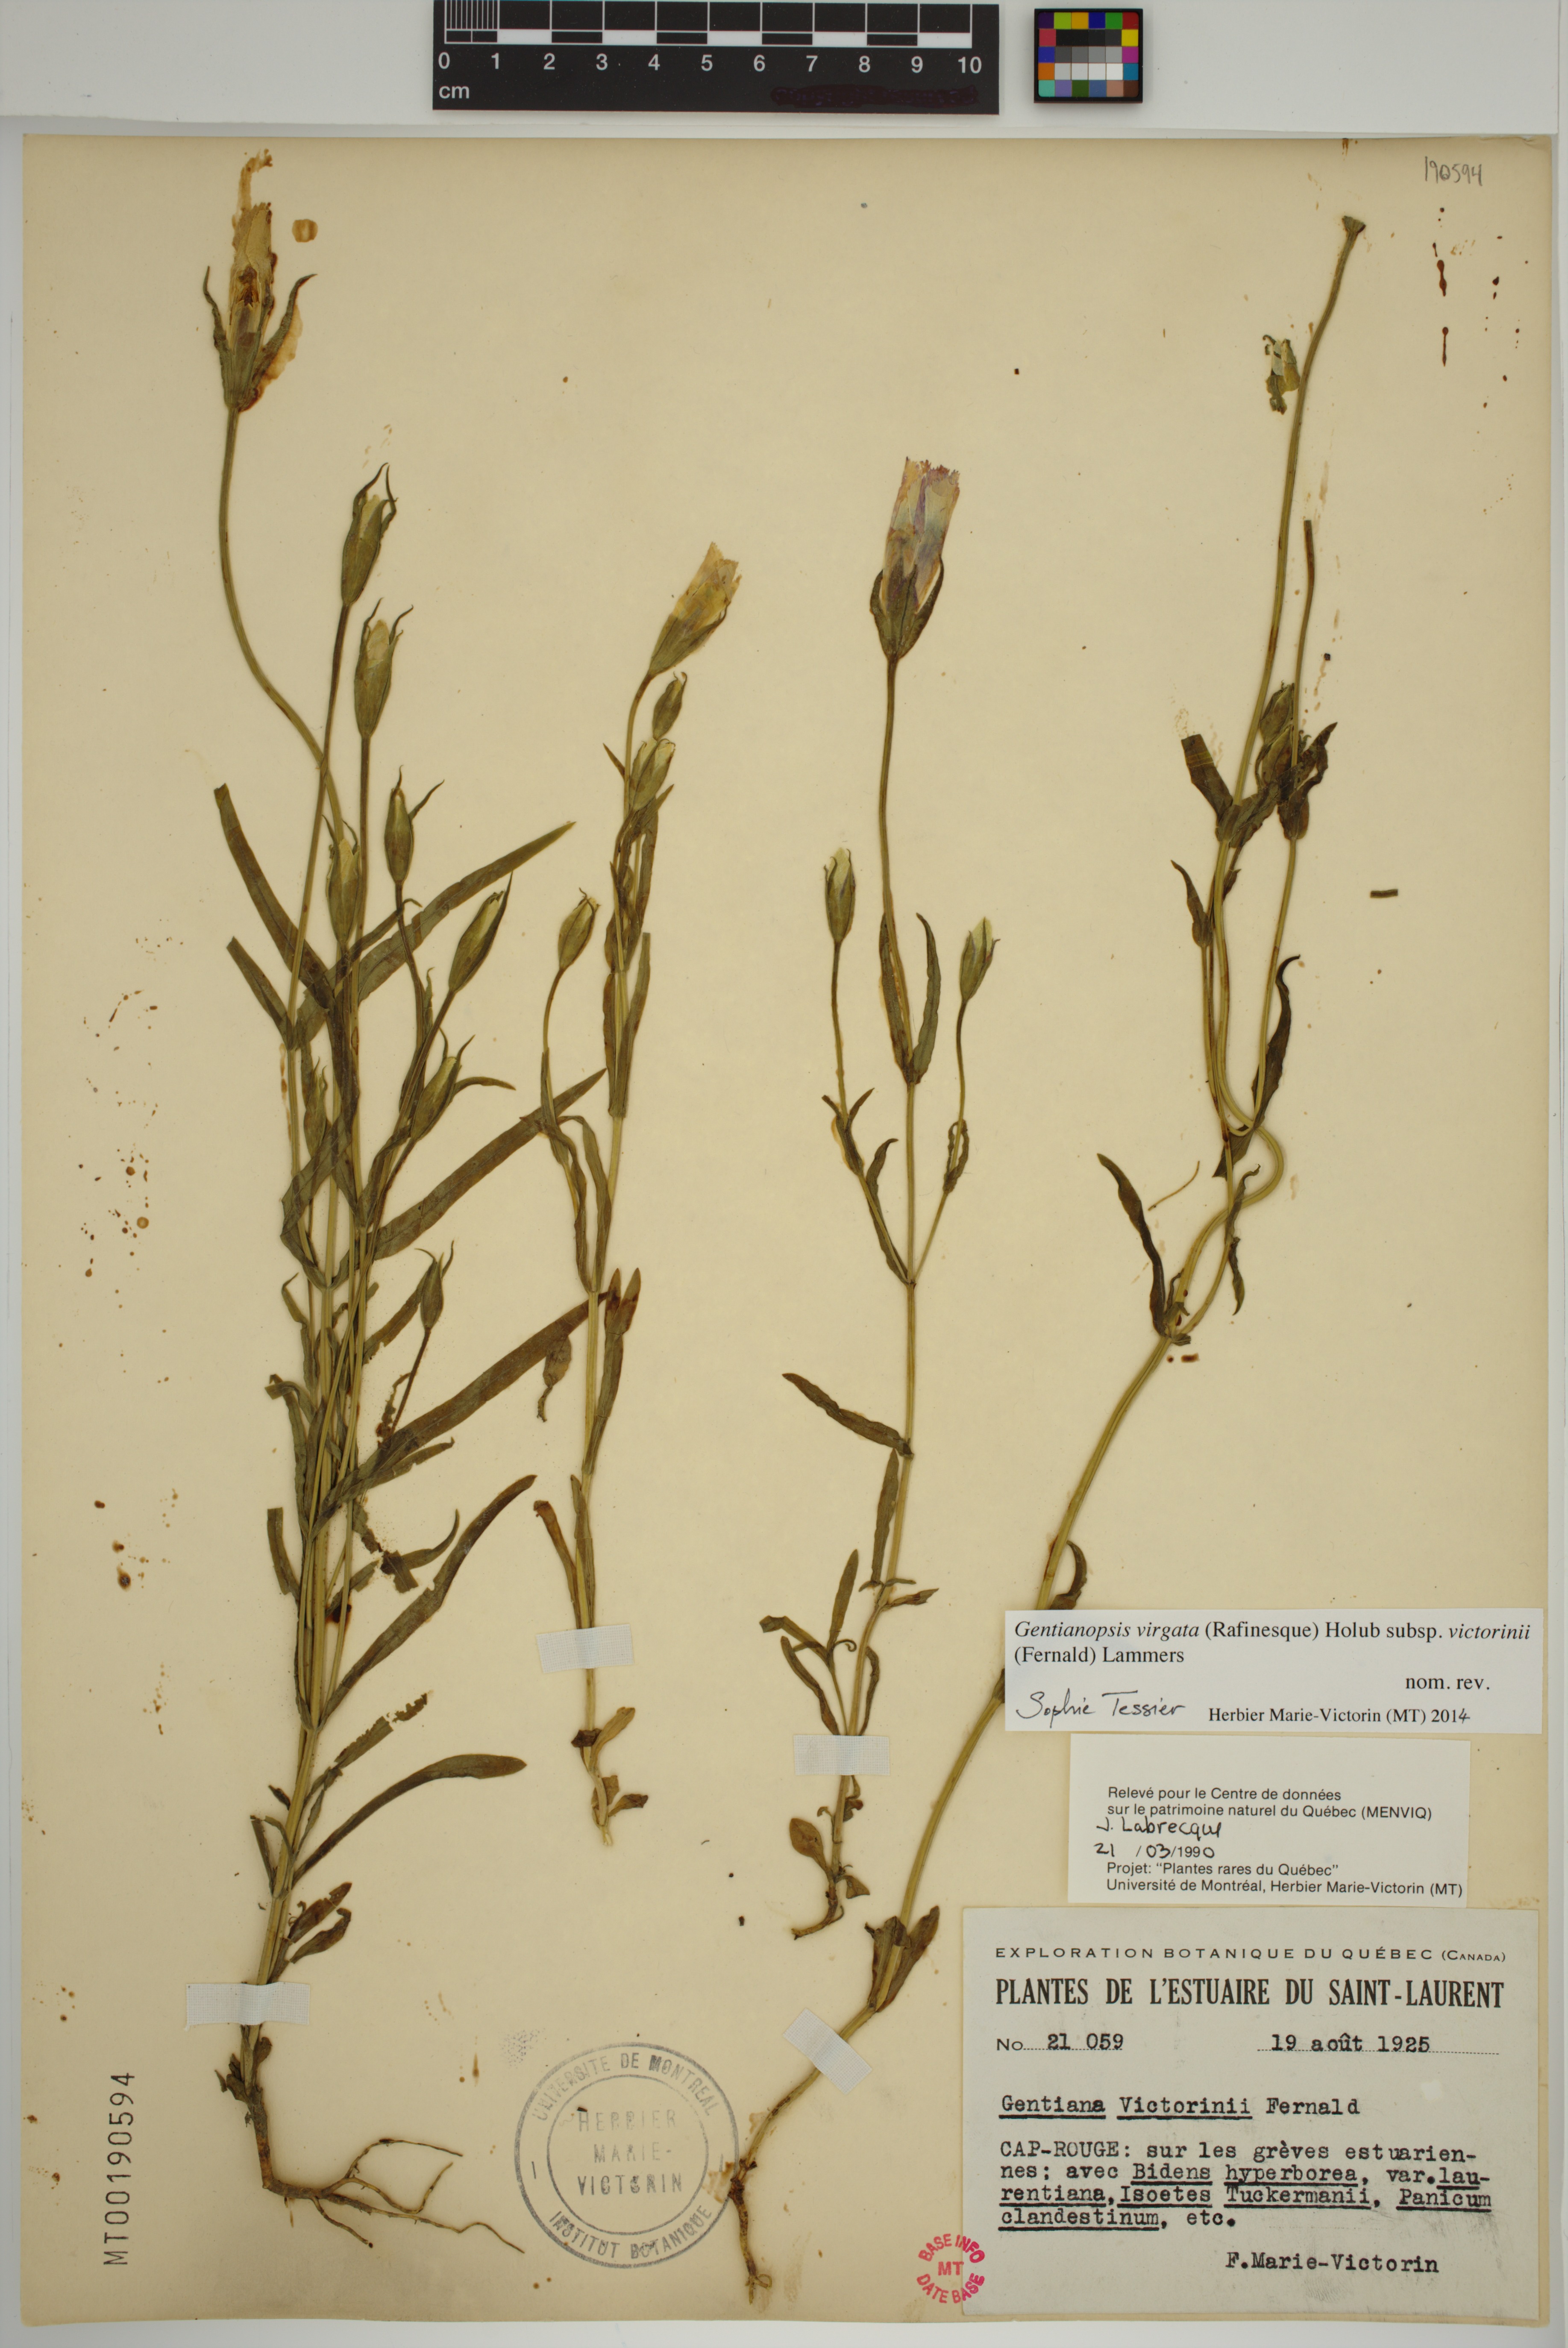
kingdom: Plantae
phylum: Tracheophyta
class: Magnoliopsida
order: Gentianales
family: Gentianaceae
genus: Gentianopsis
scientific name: Gentianopsis victorinii
